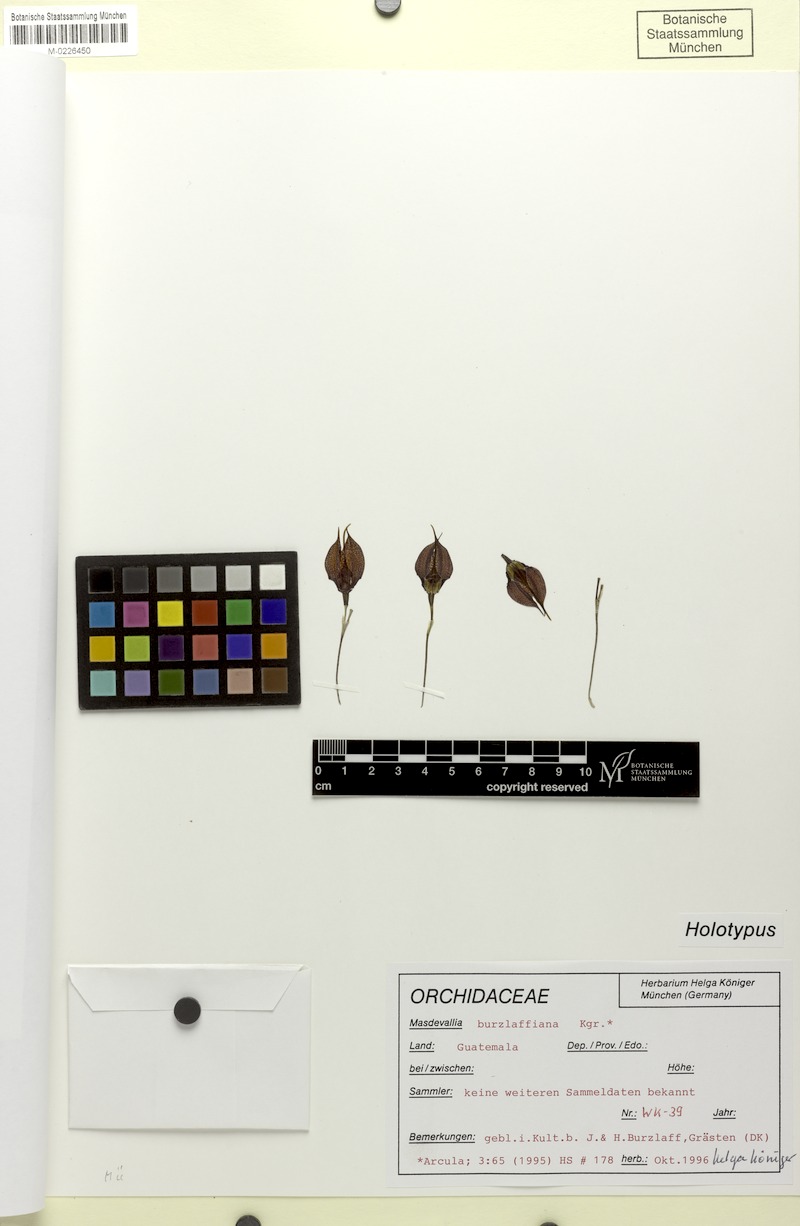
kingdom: Plantae
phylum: Tracheophyta
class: Liliopsida
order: Asparagales
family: Orchidaceae
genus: Masdevallia
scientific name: Masdevallia burzlaffiana
